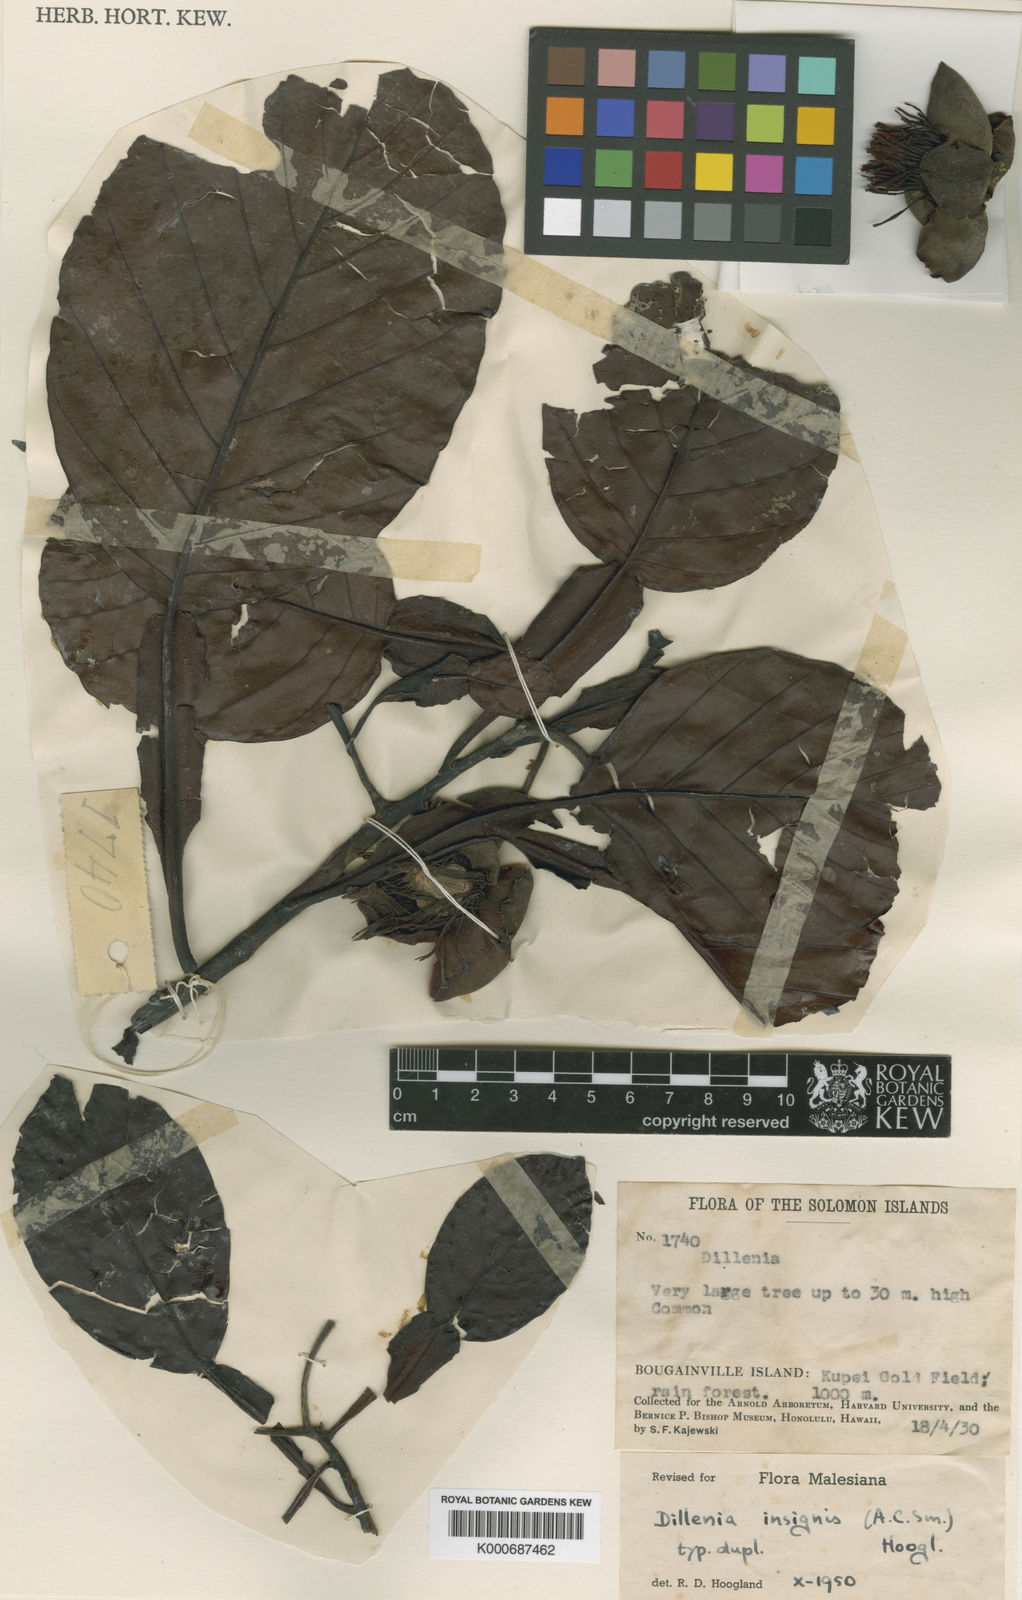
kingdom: Plantae
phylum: Tracheophyta
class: Magnoliopsida
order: Dilleniales
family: Dilleniaceae
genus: Dillenia
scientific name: Dillenia insignis
